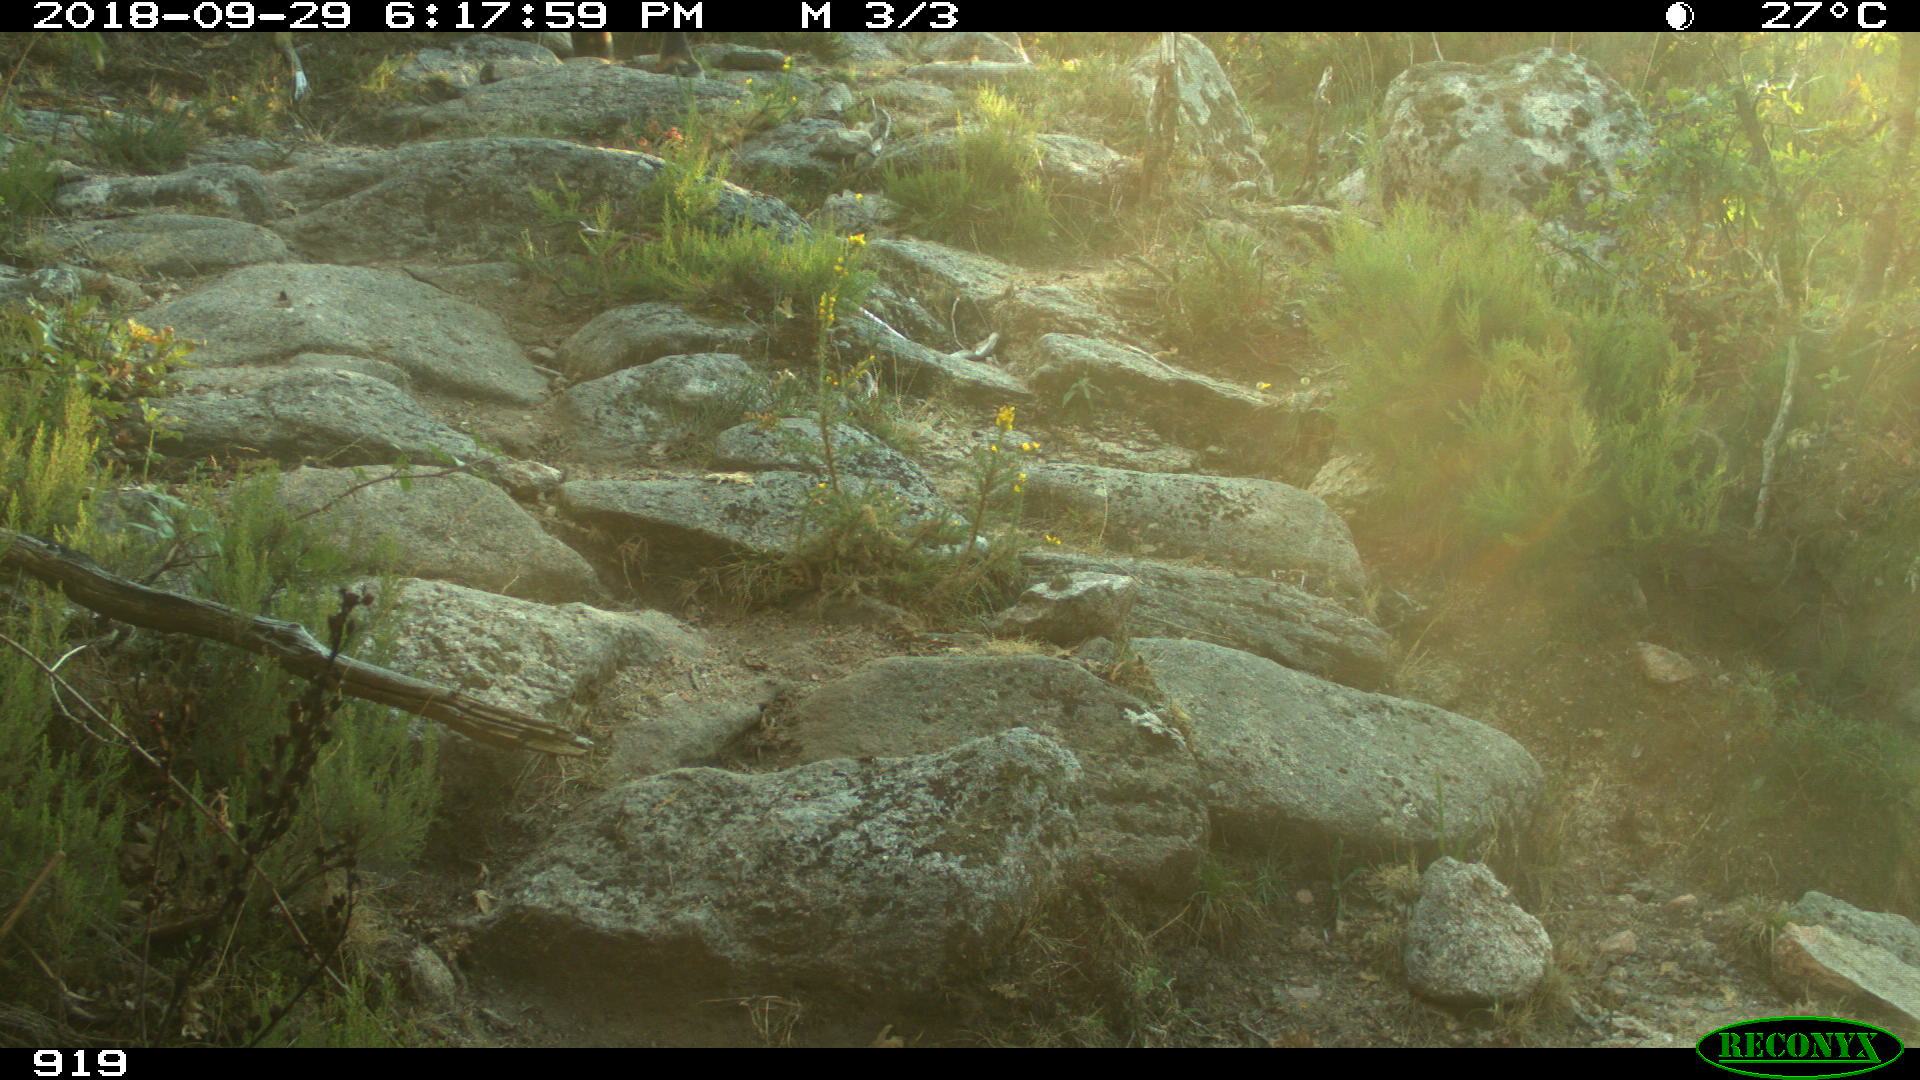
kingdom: Animalia
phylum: Chordata
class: Mammalia
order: Artiodactyla
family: Bovidae
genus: Bos
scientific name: Bos taurus
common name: Domesticated cattle
